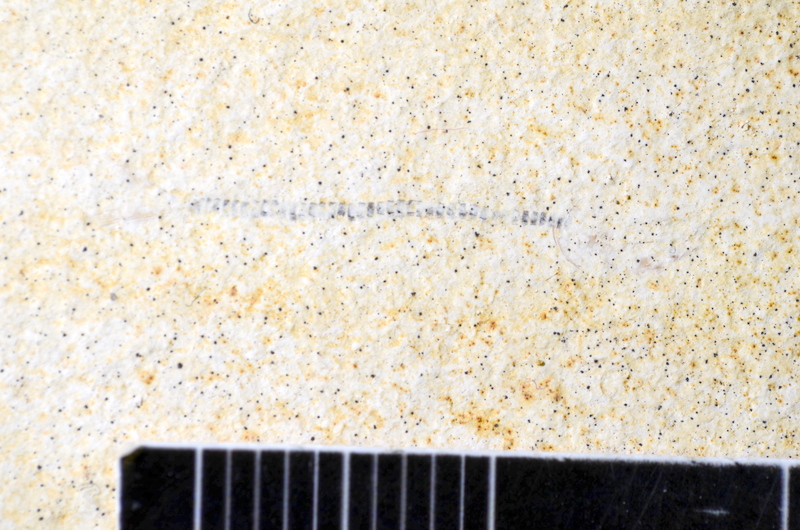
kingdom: Animalia
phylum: Chordata
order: Salmoniformes
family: Orthogonikleithridae
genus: Orthogonikleithrus
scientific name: Orthogonikleithrus hoelli
